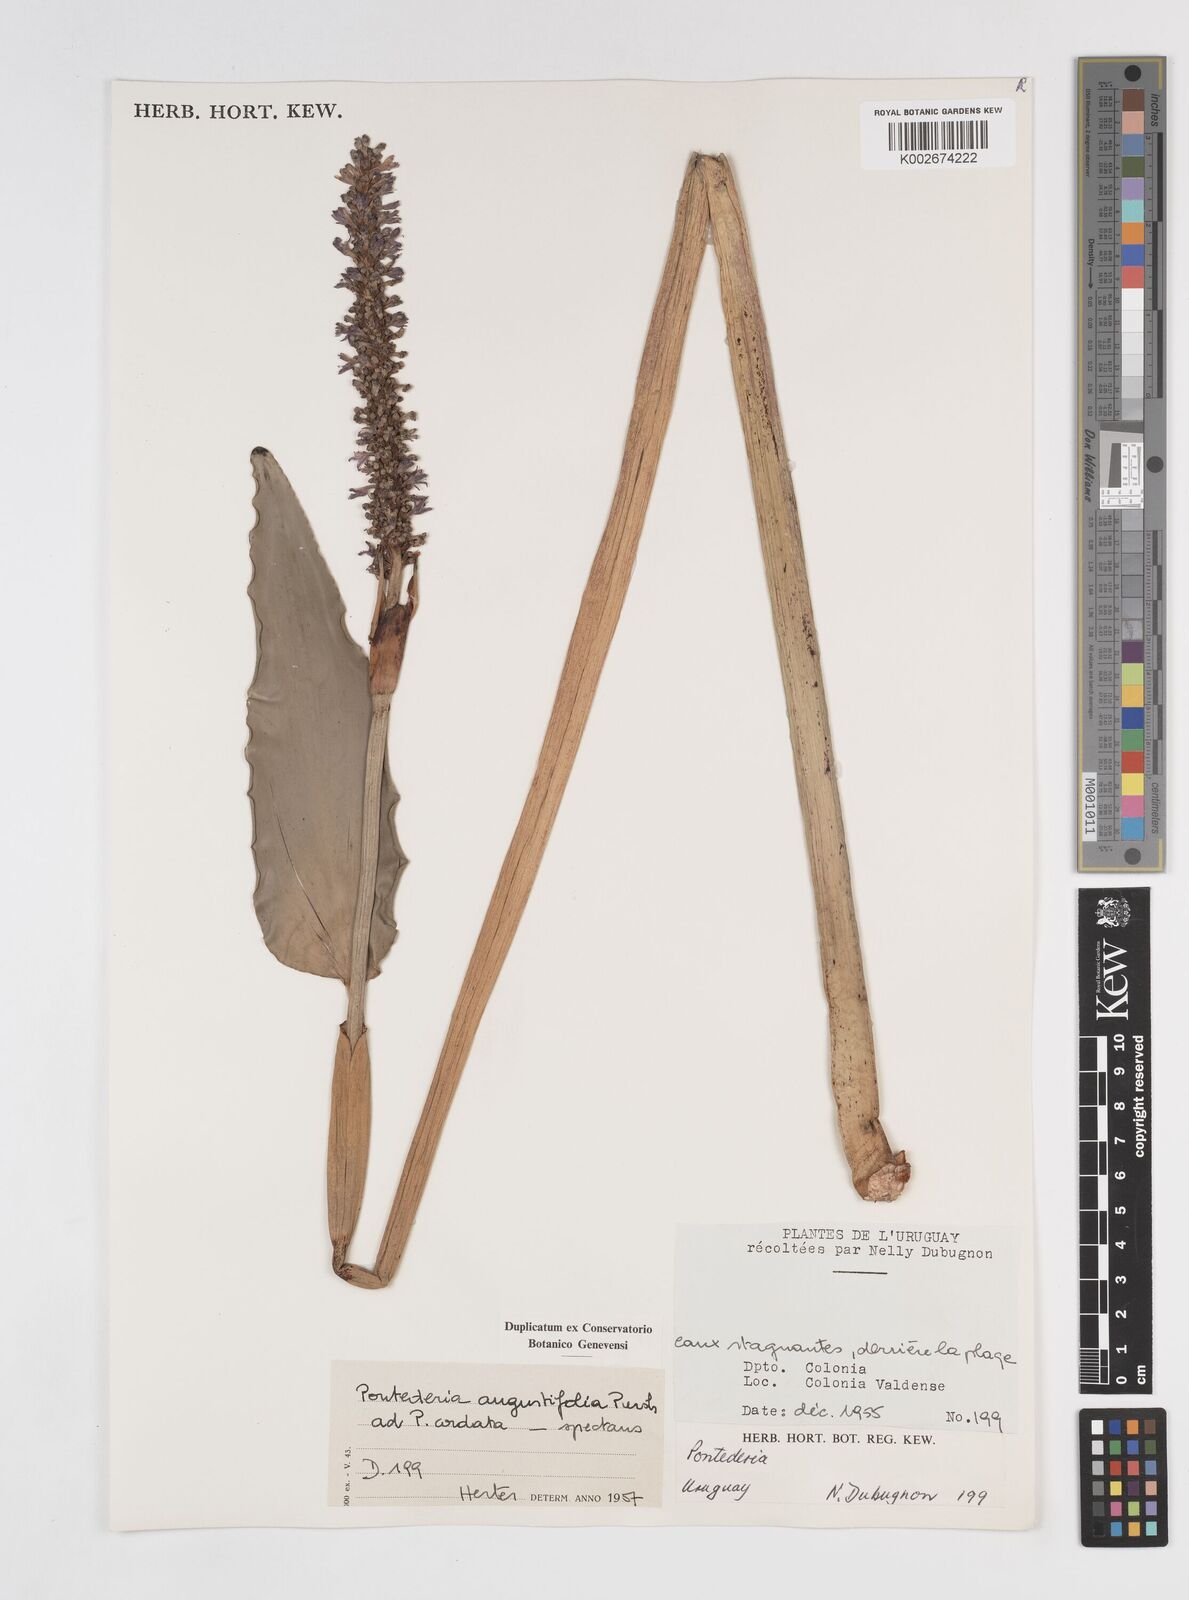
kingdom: Plantae
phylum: Tracheophyta
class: Liliopsida
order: Commelinales
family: Pontederiaceae
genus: Pontederia
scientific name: Pontederia
